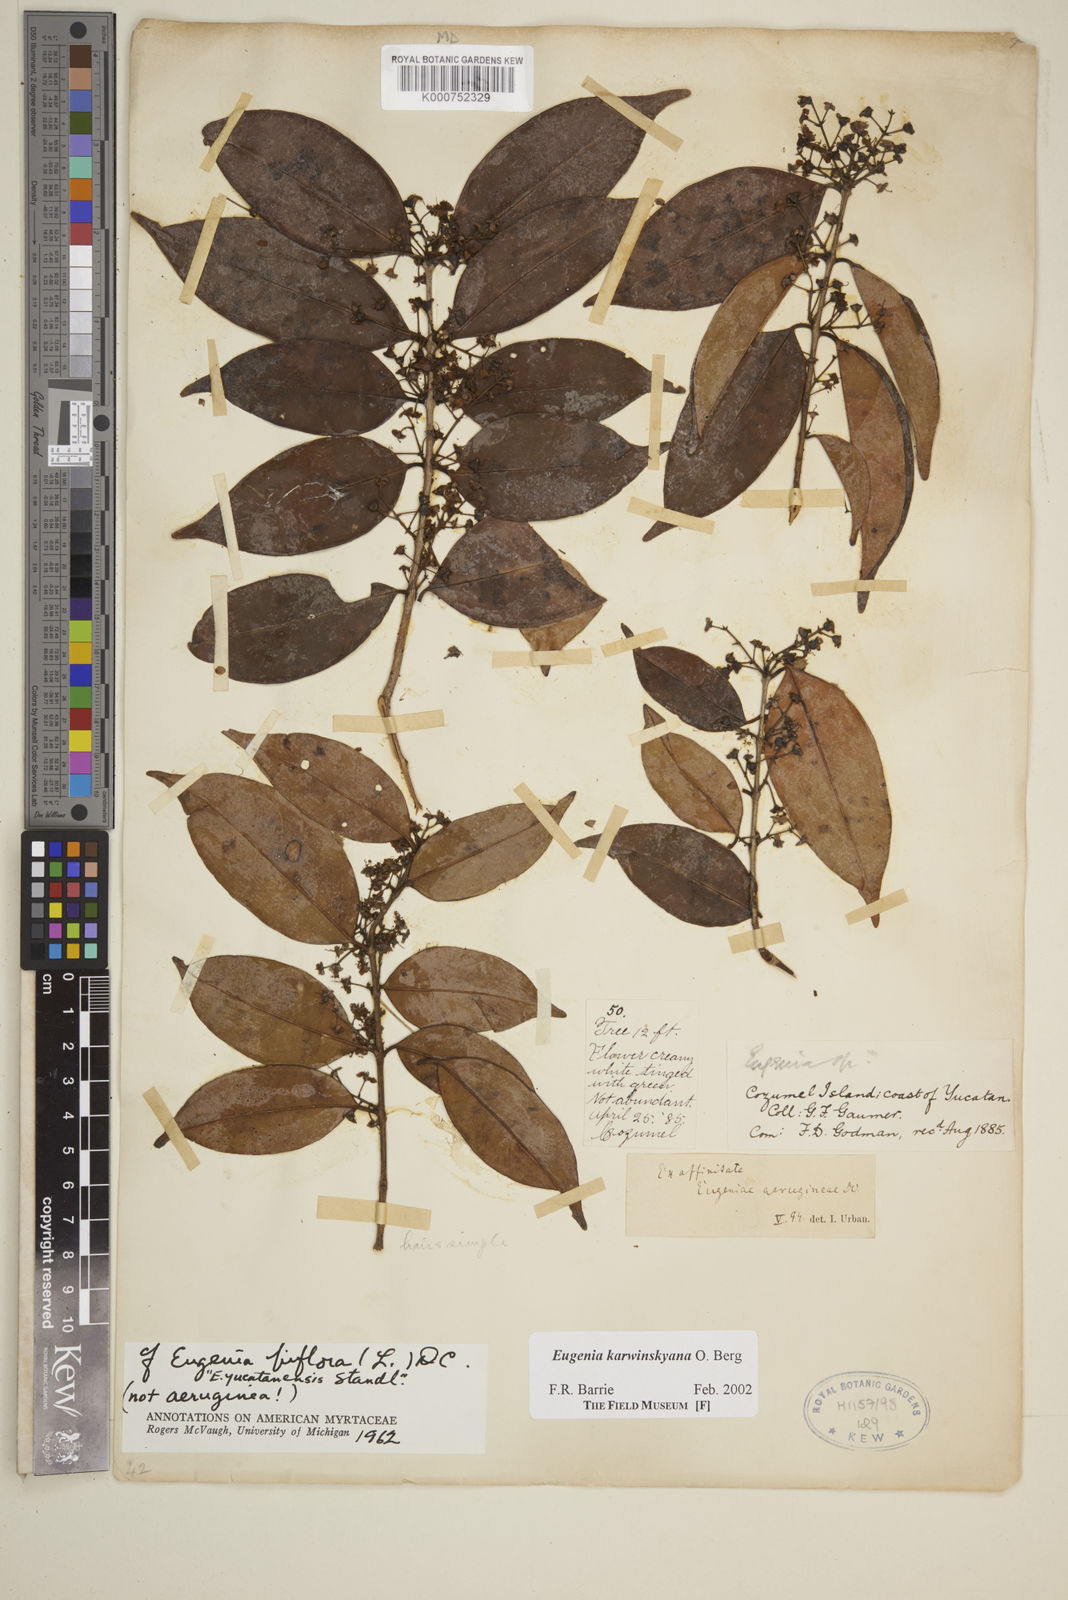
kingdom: Plantae
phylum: Tracheophyta
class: Magnoliopsida
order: Myrtales
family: Myrtaceae
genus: Eugenia
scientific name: Eugenia karwinskyana
